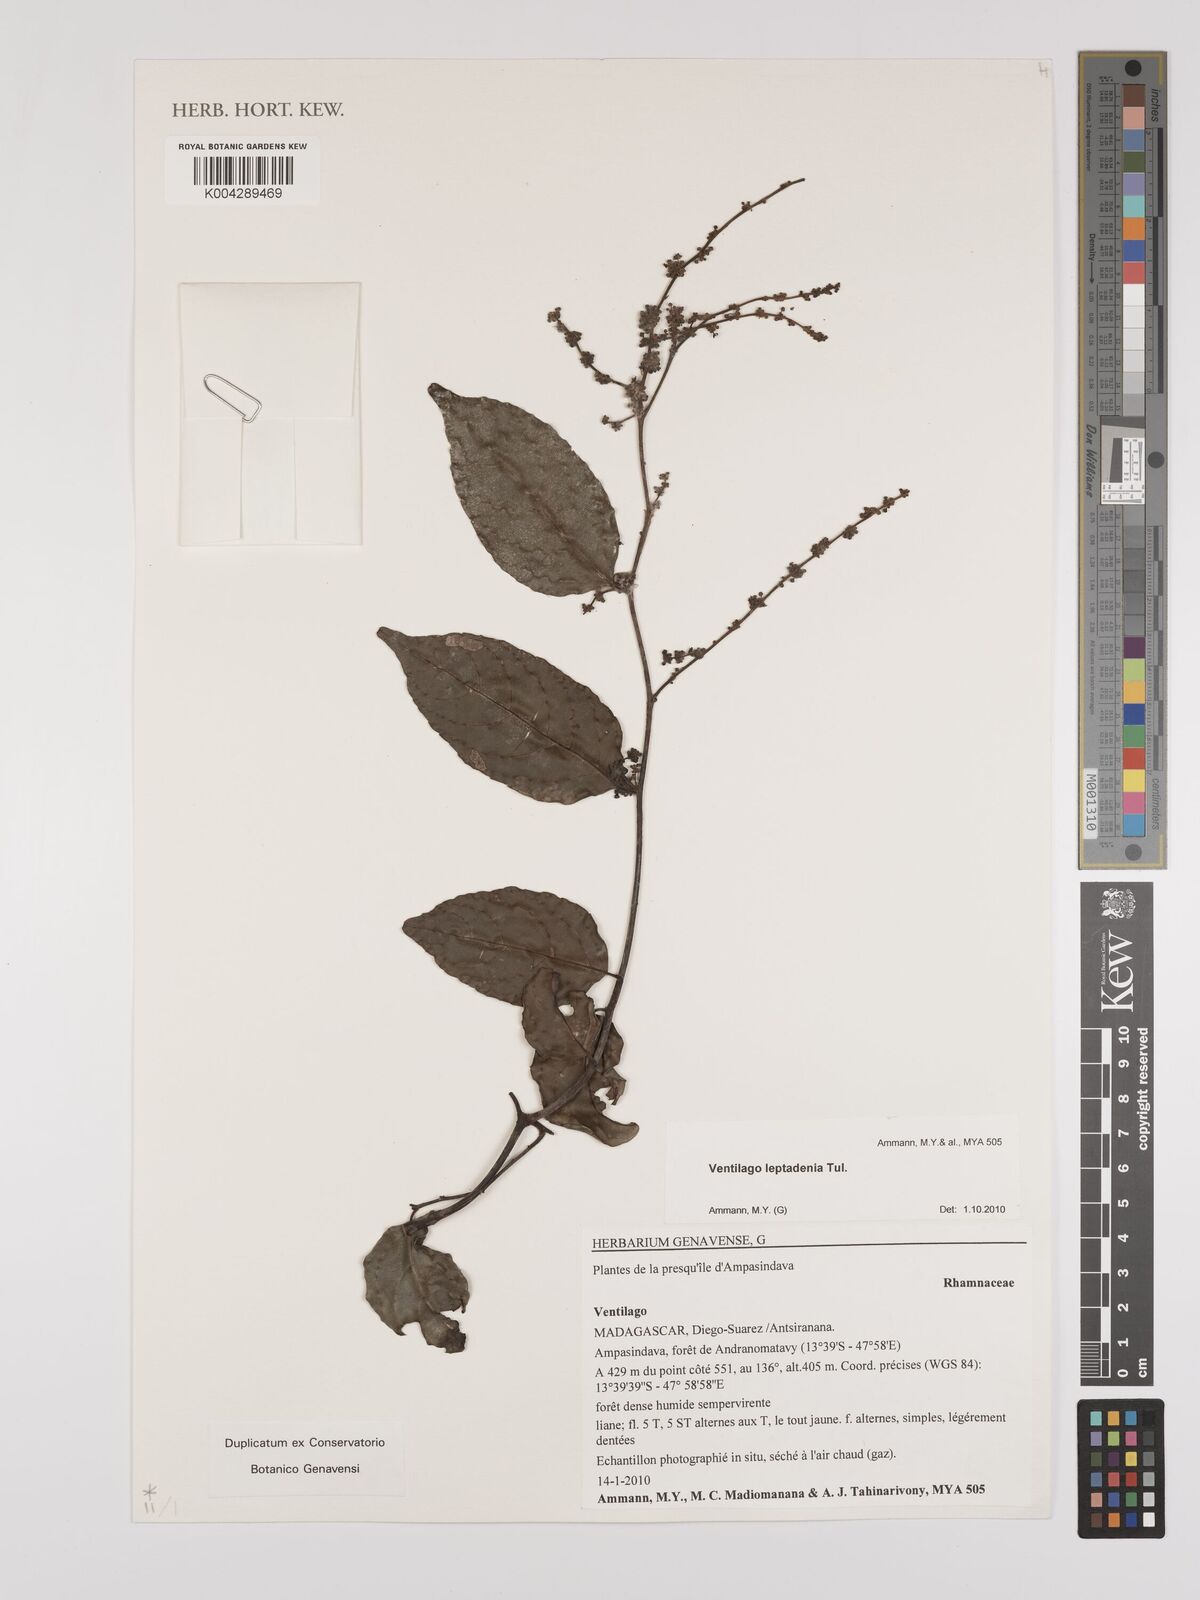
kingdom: Plantae
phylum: Tracheophyta
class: Magnoliopsida
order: Rosales
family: Rhamnaceae
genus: Ventilago
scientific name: Ventilago leptadenia
